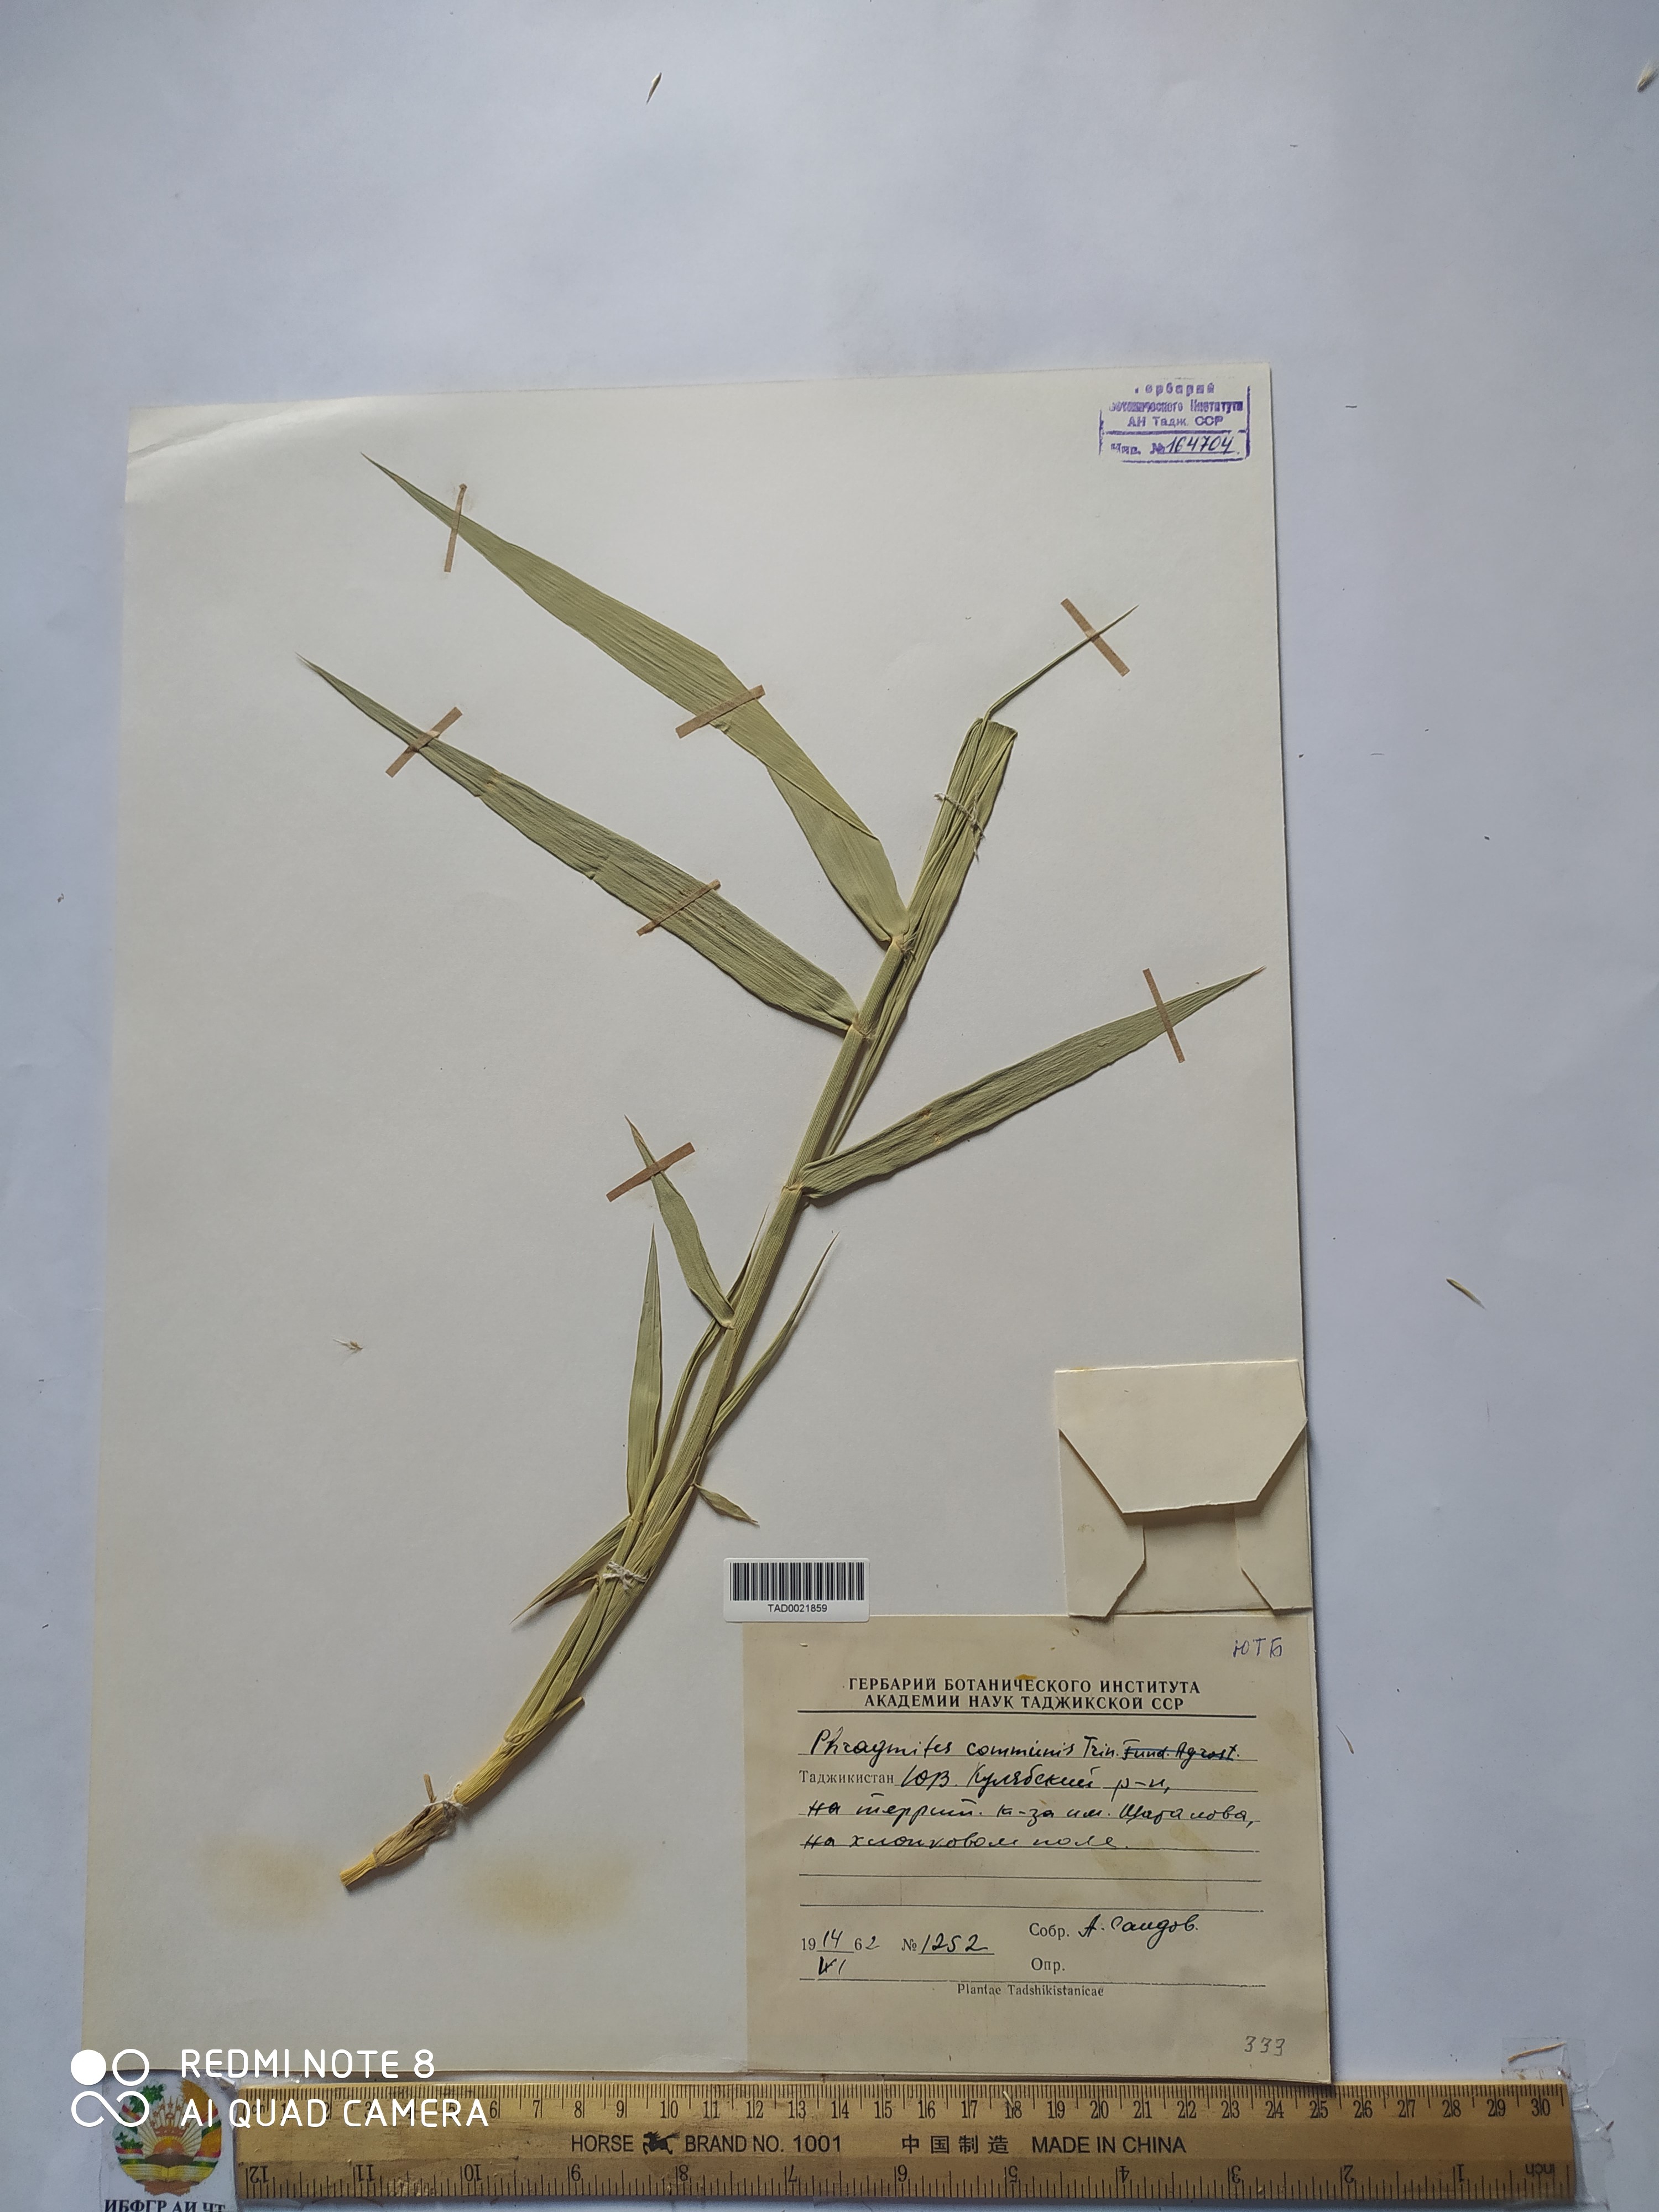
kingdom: Plantae
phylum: Tracheophyta
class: Liliopsida
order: Poales
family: Poaceae
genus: Phragmites
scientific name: Phragmites australis
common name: Common reed
